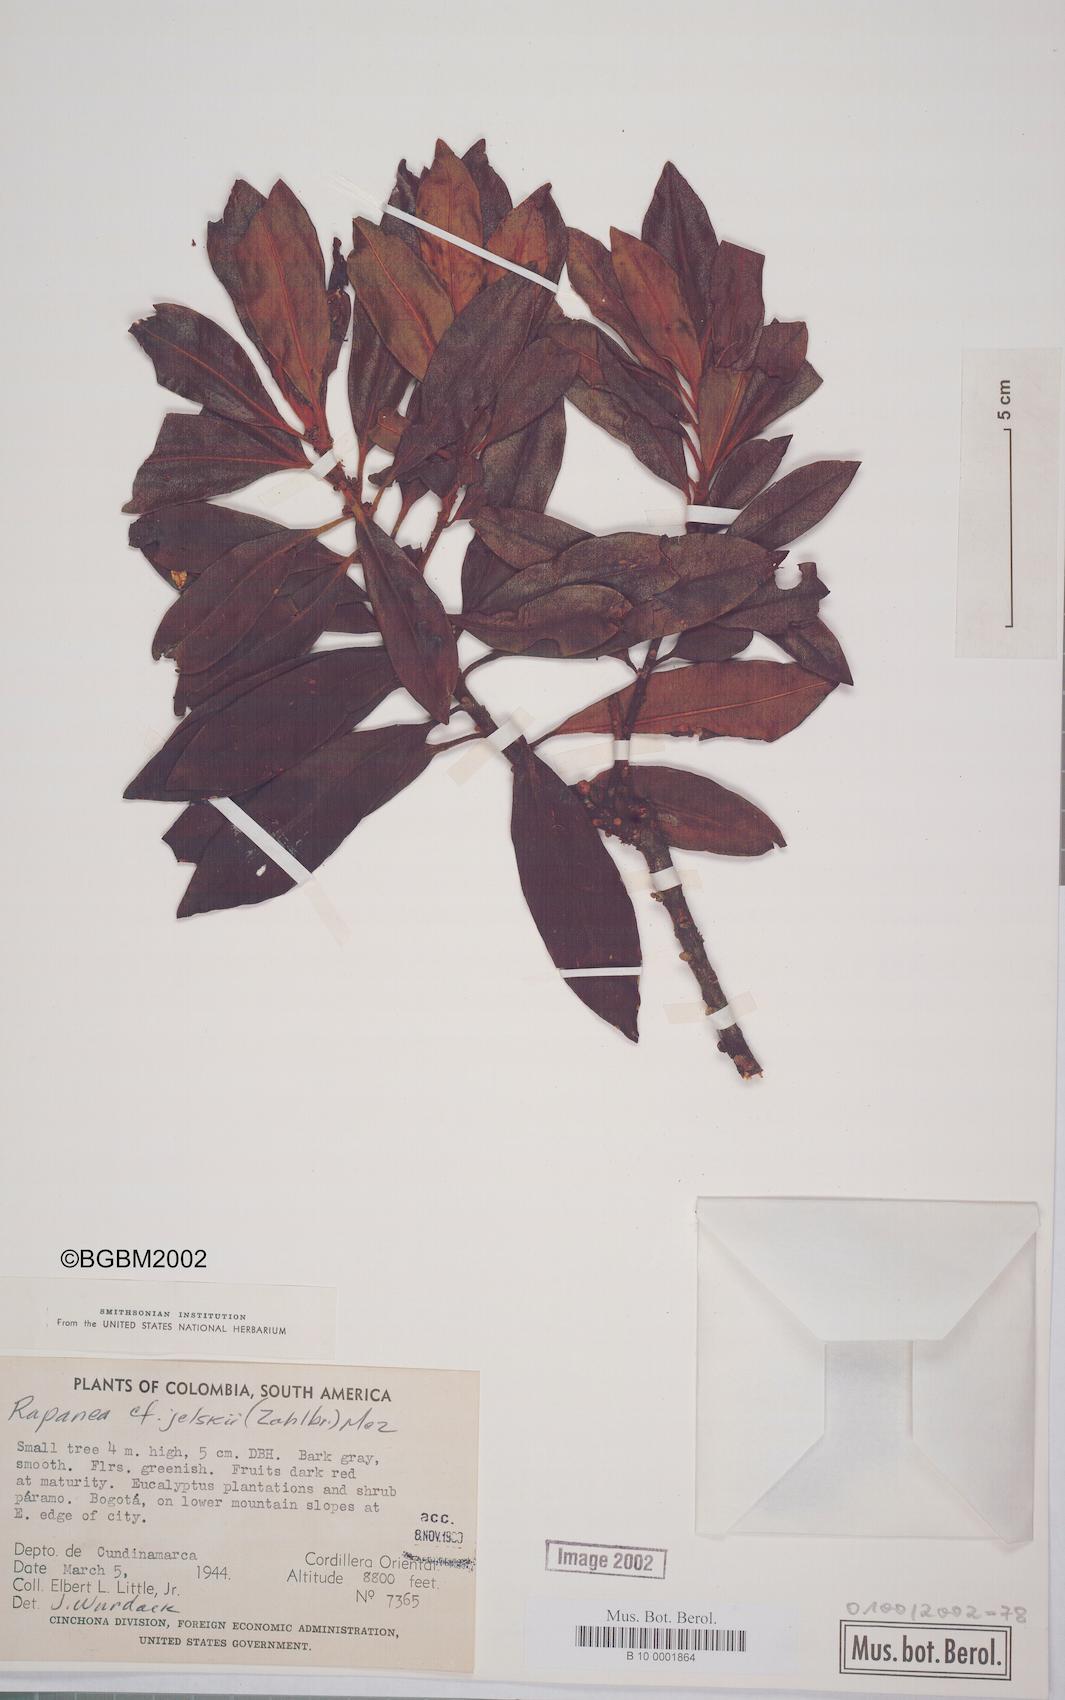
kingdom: Plantae
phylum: Tracheophyta
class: Magnoliopsida
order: Ericales
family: Primulaceae
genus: Myrsine
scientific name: Myrsine coriacea
